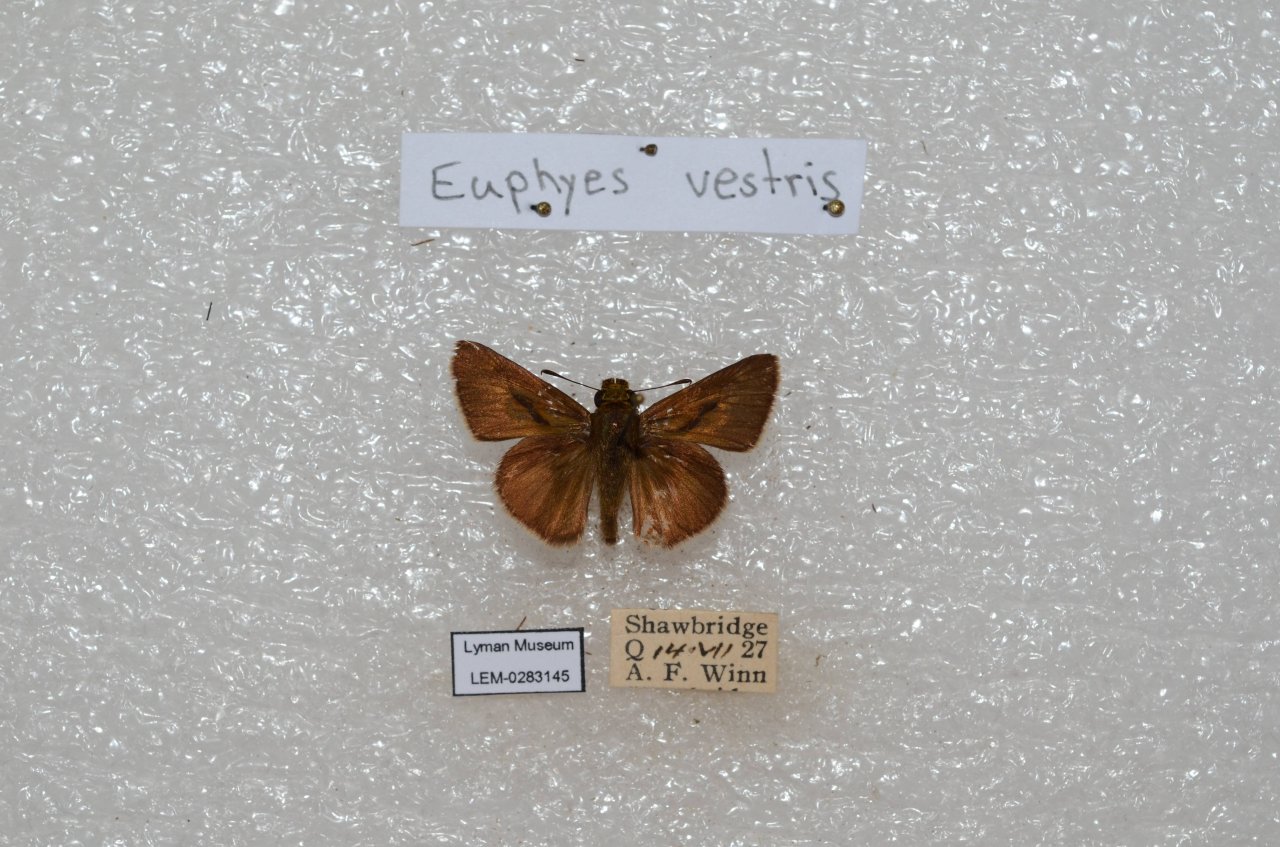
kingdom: Animalia
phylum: Arthropoda
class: Insecta
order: Lepidoptera
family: Hesperiidae
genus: Euphyes
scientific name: Euphyes vestris
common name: Dun Skipper
